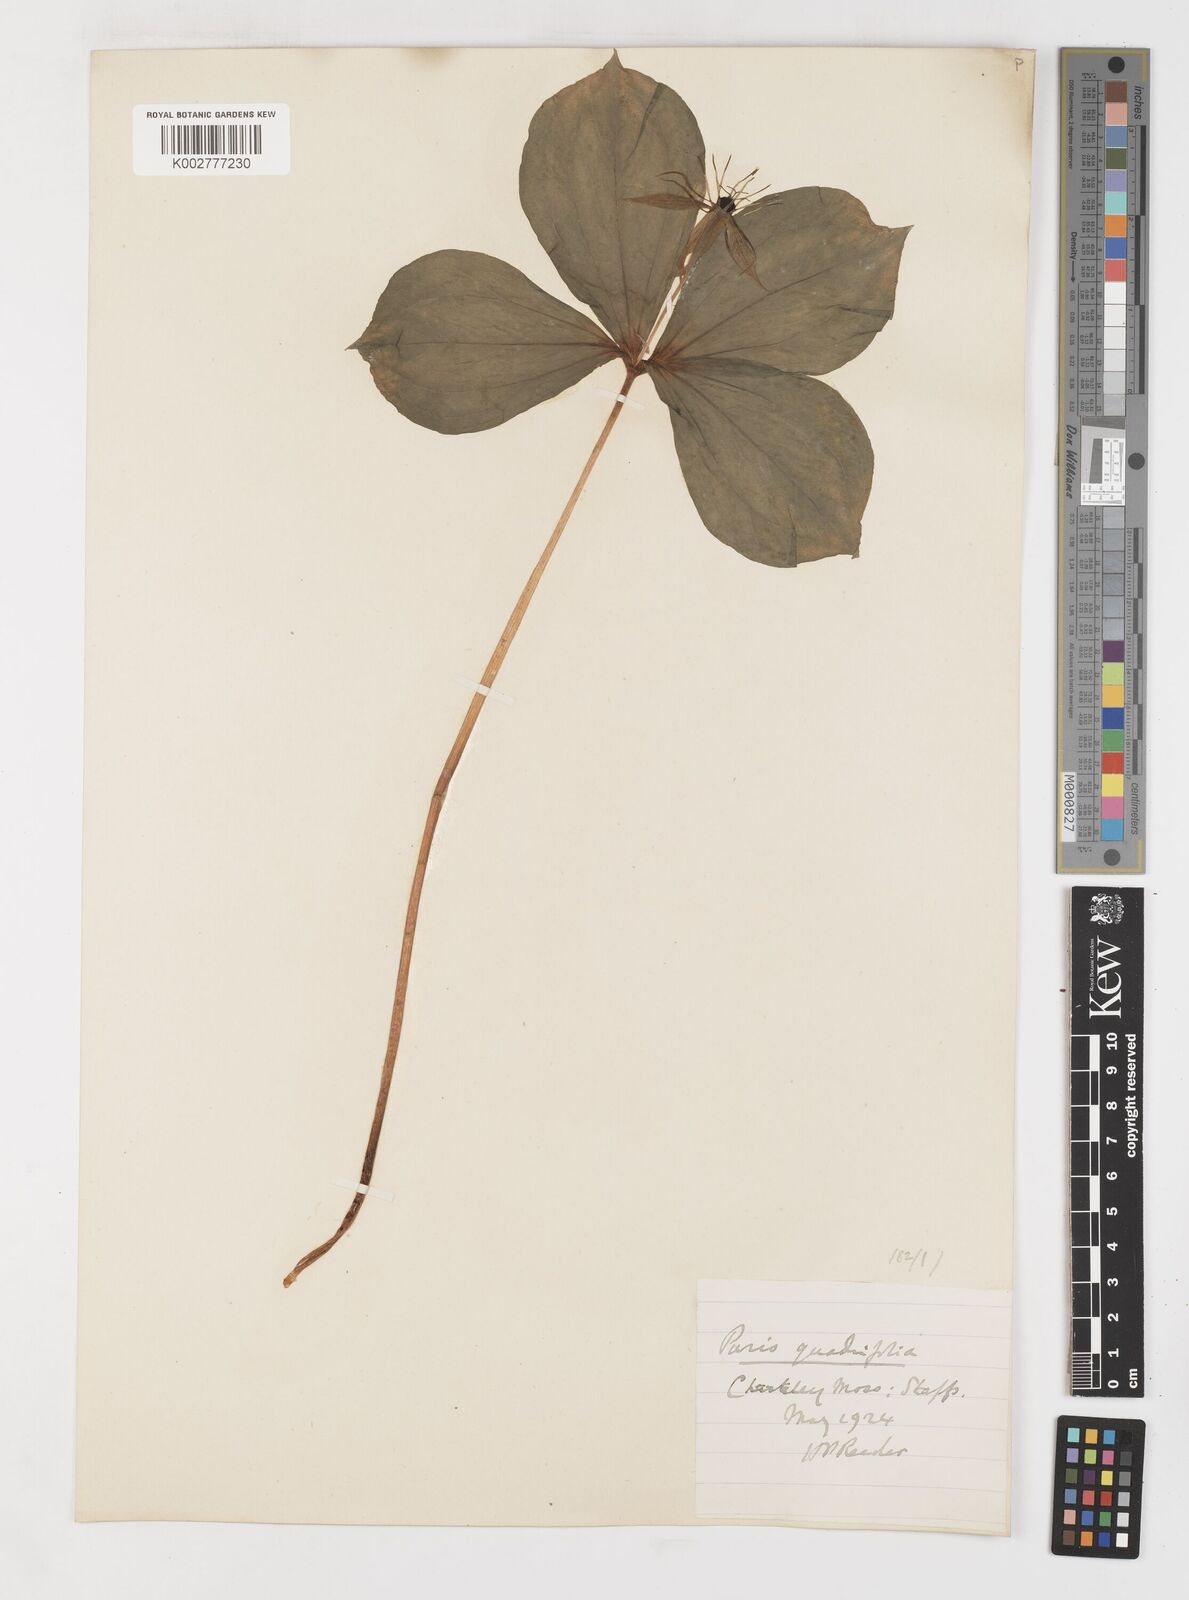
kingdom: Plantae
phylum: Tracheophyta
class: Liliopsida
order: Liliales
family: Melanthiaceae
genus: Paris
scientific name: Paris quadrifolia
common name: Herb-paris
